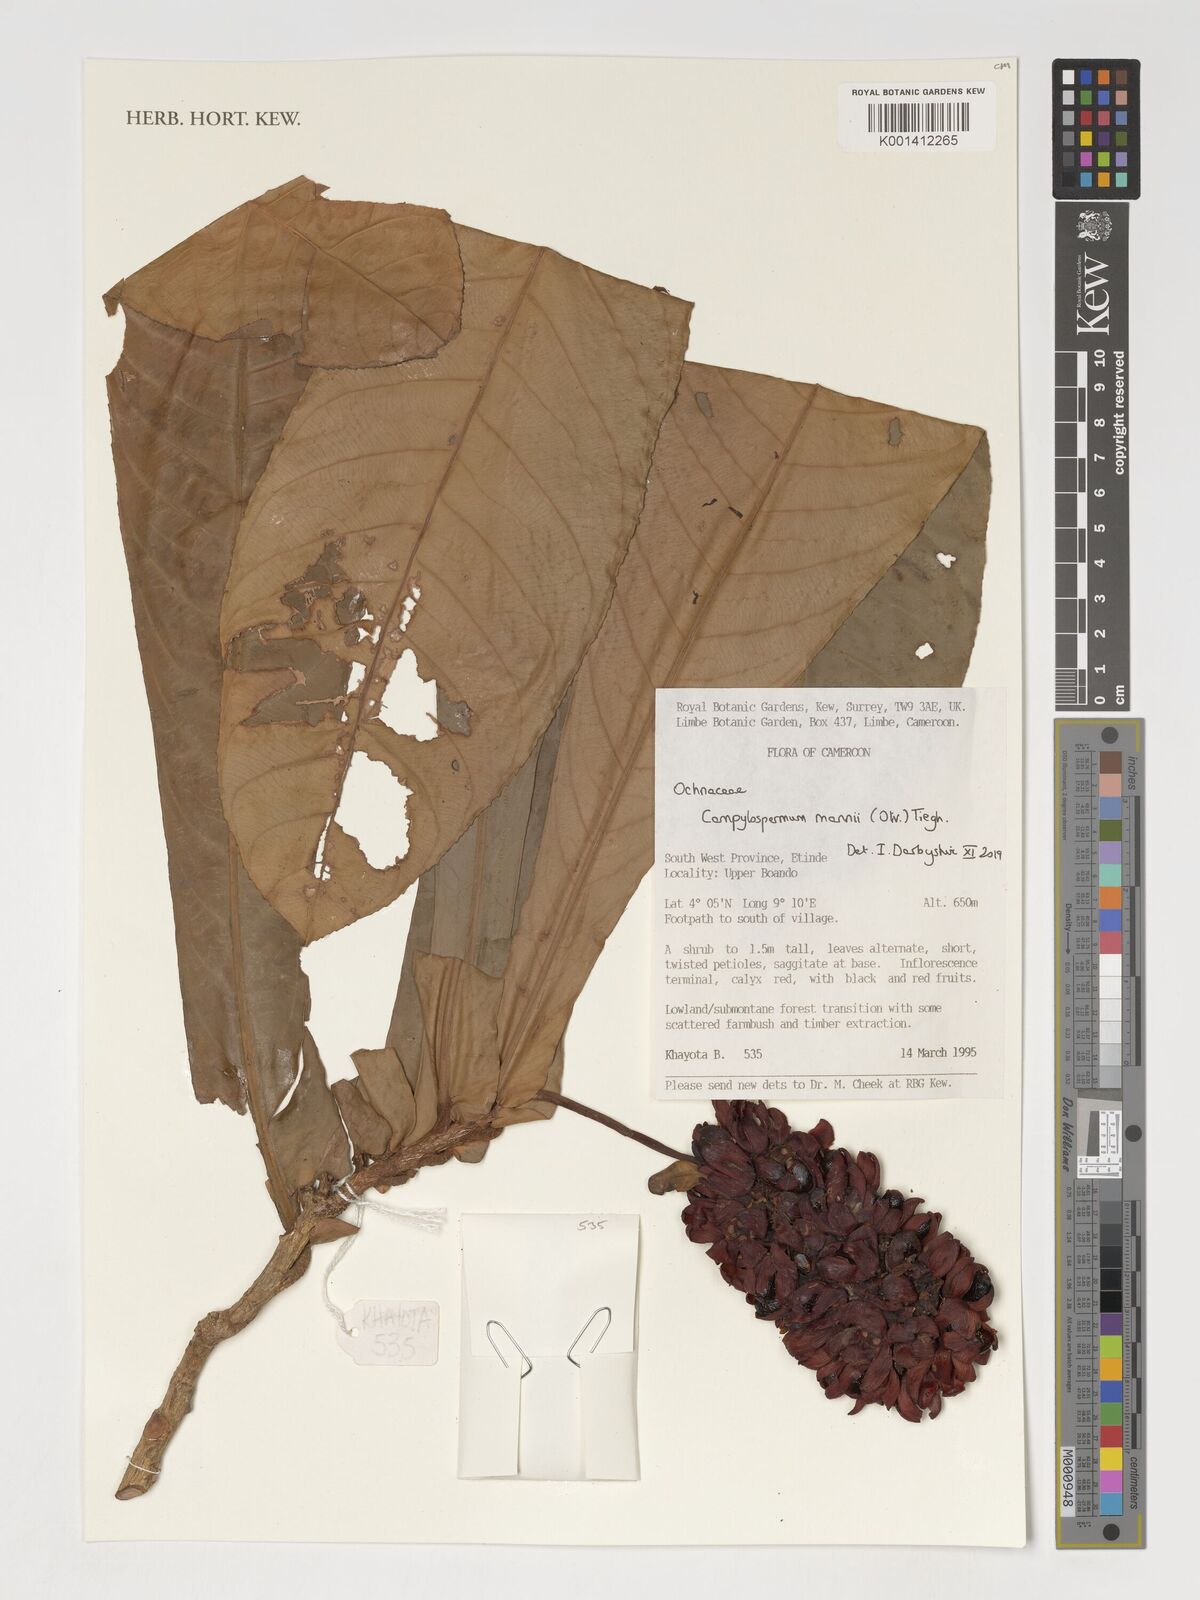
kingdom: Plantae
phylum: Tracheophyta
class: Magnoliopsida
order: Malpighiales
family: Ochnaceae
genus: Campylospermum
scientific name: Campylospermum mannii
